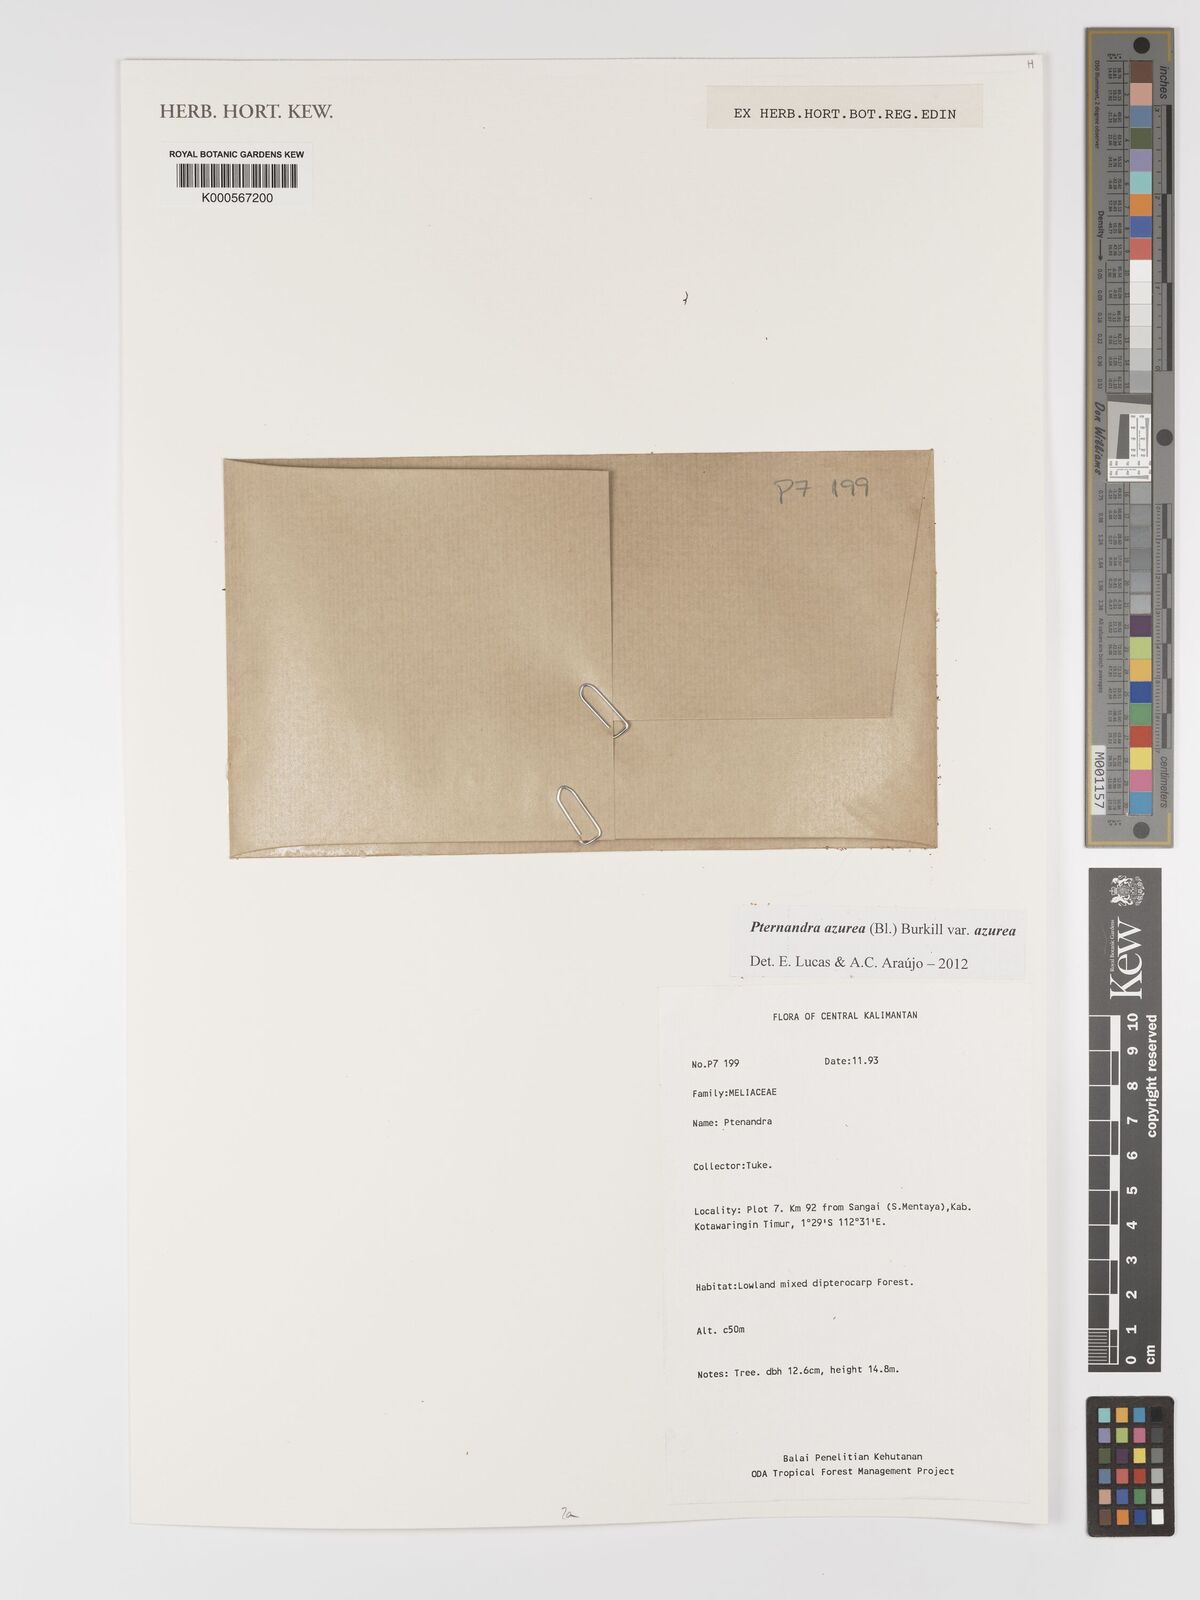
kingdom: Plantae
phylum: Tracheophyta
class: Magnoliopsida
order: Myrtales
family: Melastomataceae
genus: Pternandra
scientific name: Pternandra azurea
